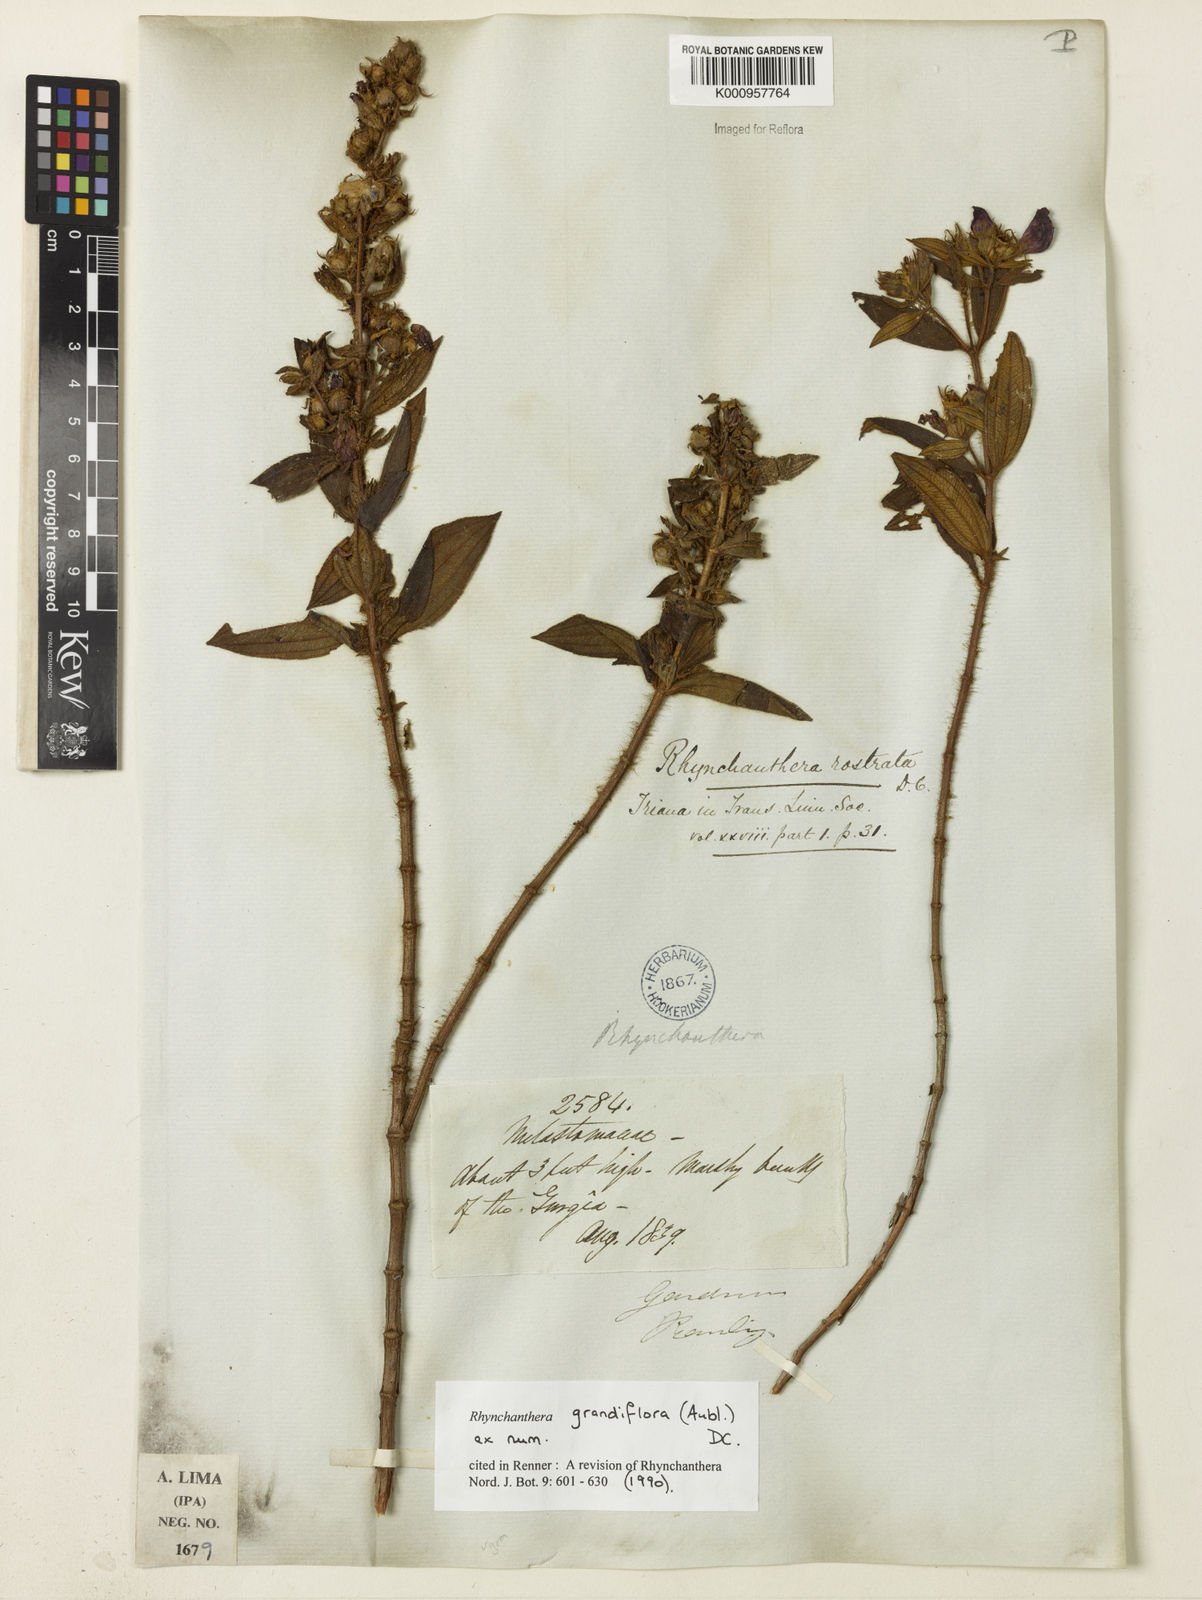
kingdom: Plantae
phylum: Tracheophyta
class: Magnoliopsida
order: Myrtales
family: Melastomataceae
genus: Rhynchanthera
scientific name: Rhynchanthera grandiflora
